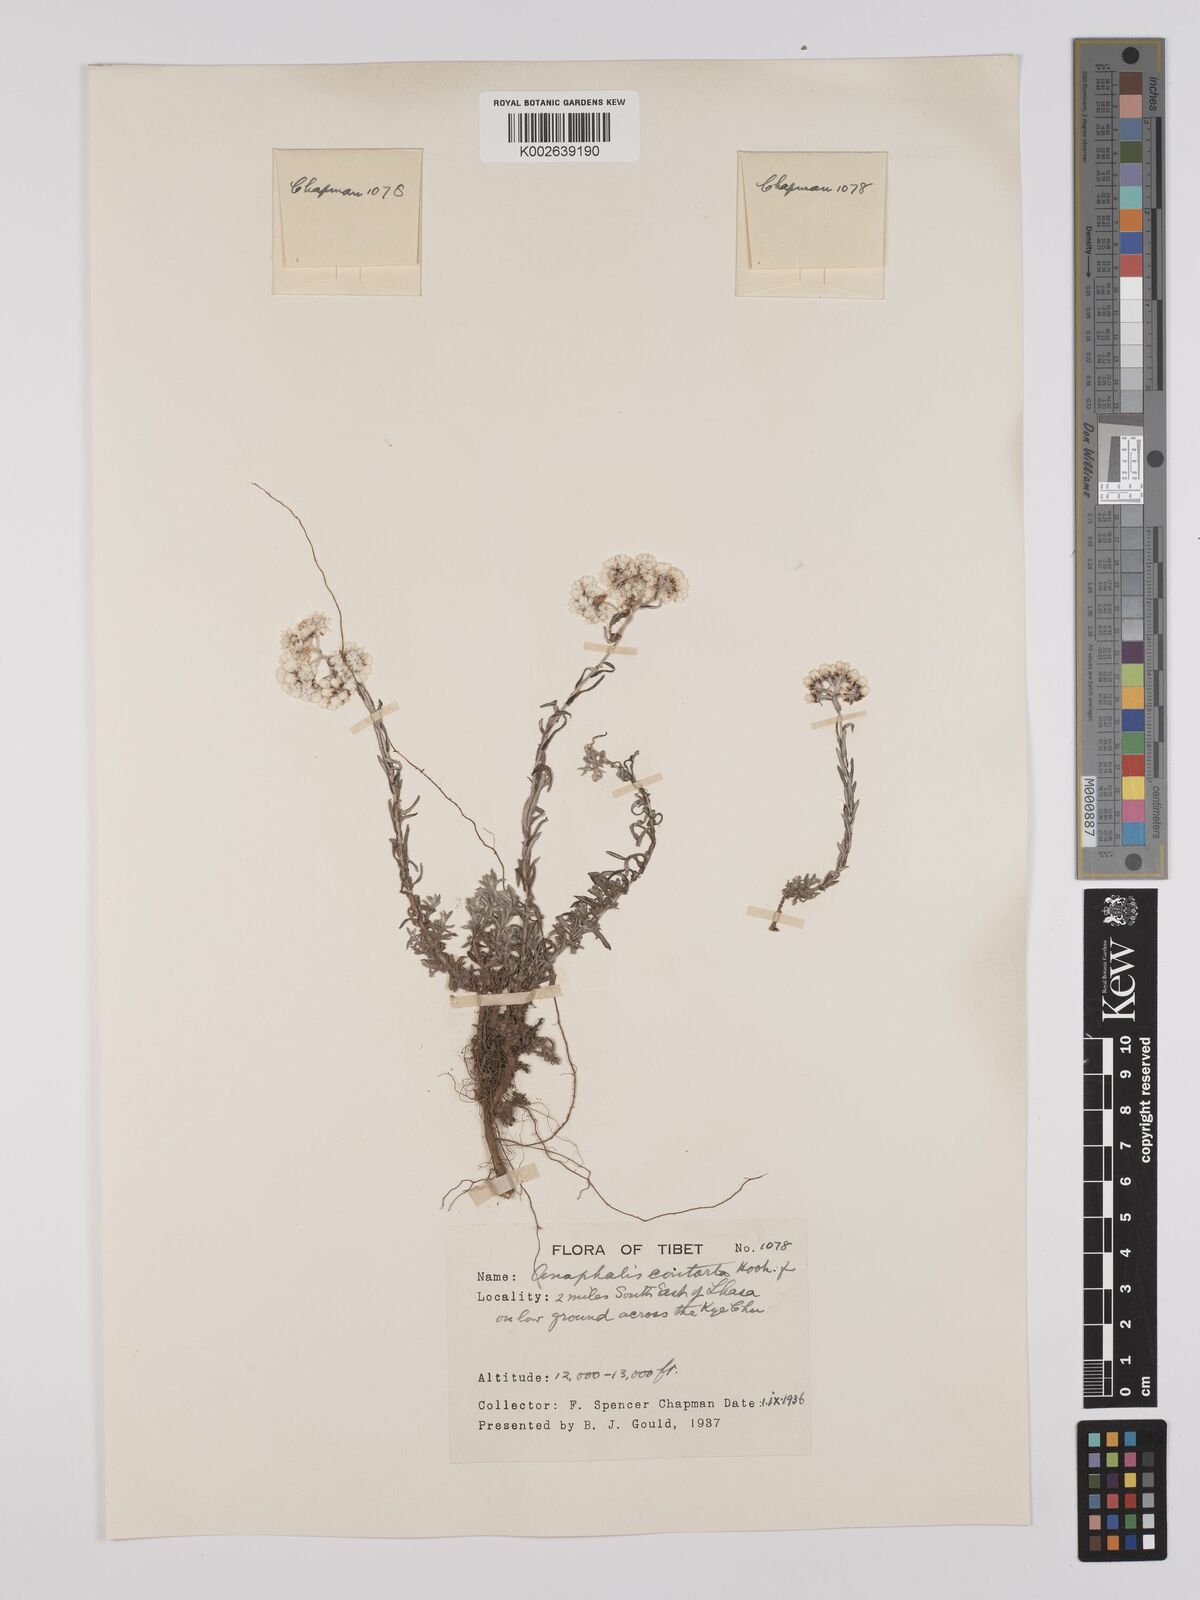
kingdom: Plantae
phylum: Tracheophyta
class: Magnoliopsida
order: Asterales
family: Asteraceae
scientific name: Asteraceae
